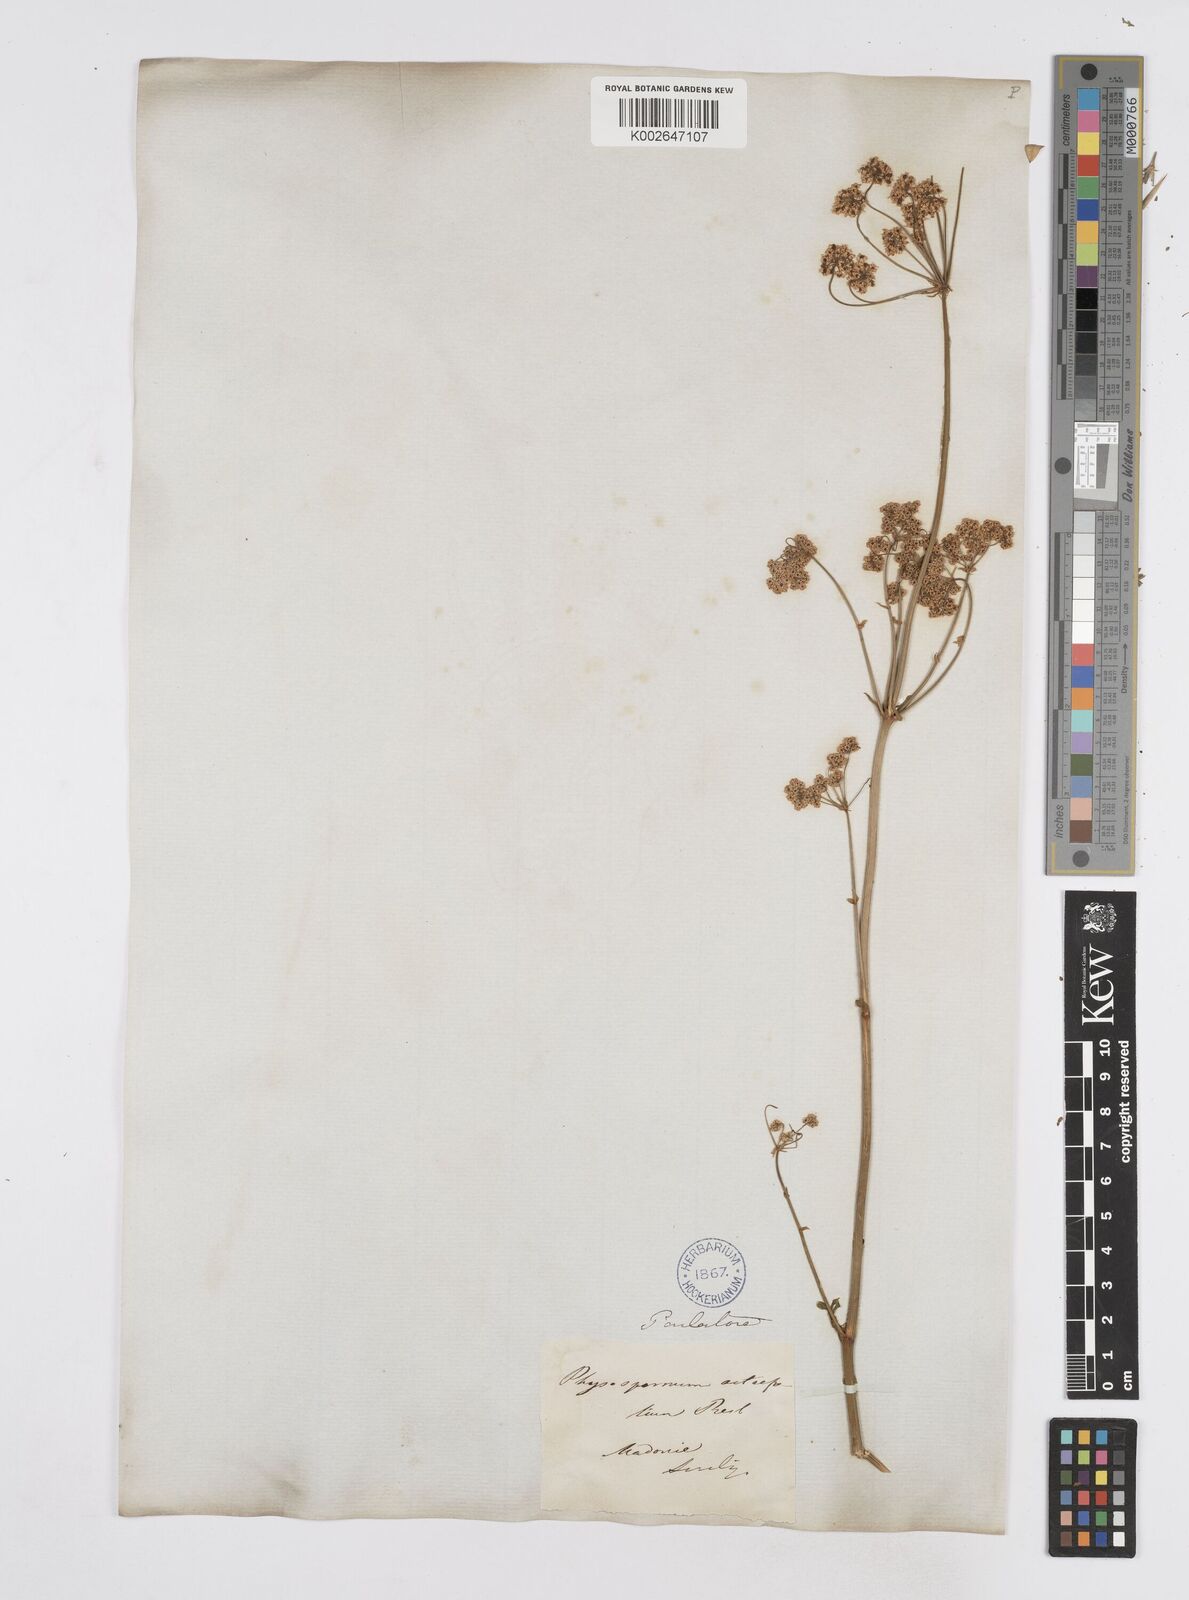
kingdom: Plantae
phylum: Tracheophyta
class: Magnoliopsida
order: Apiales
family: Apiaceae
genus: Physospermum
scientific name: Physospermum verticillatum
